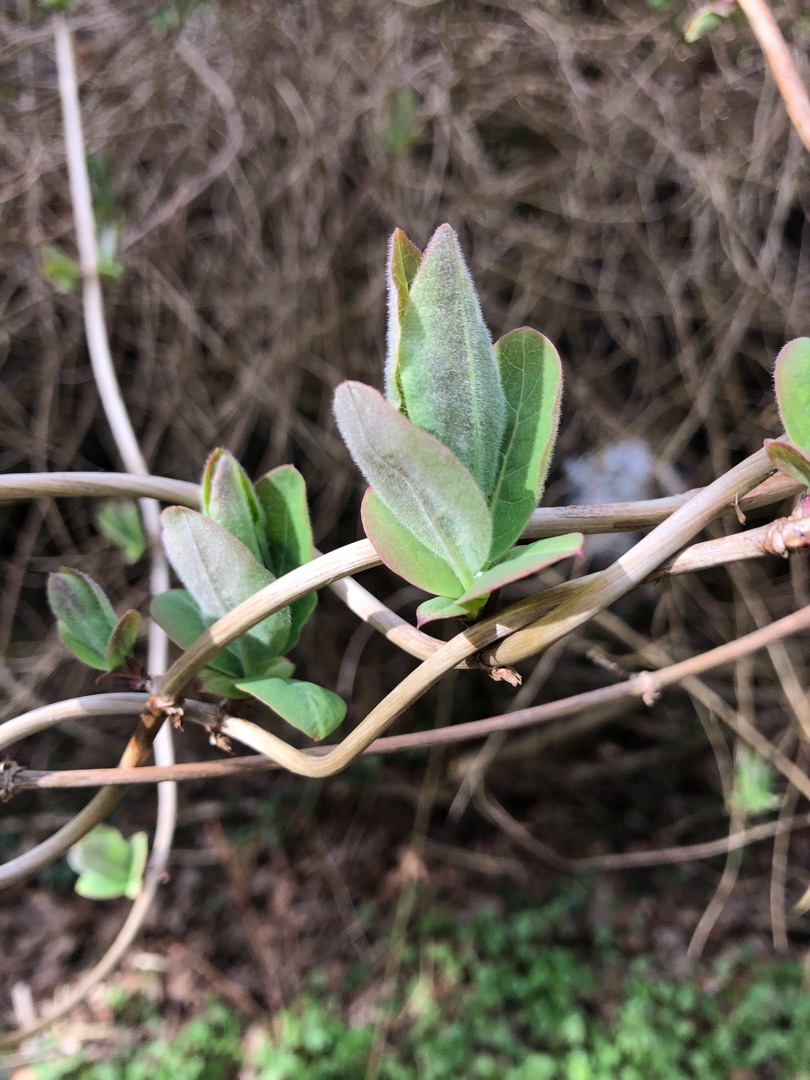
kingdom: Plantae
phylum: Tracheophyta
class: Magnoliopsida
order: Dipsacales
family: Caprifoliaceae
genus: Lonicera
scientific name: Lonicera periclymenum
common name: Almindelig gedeblad
